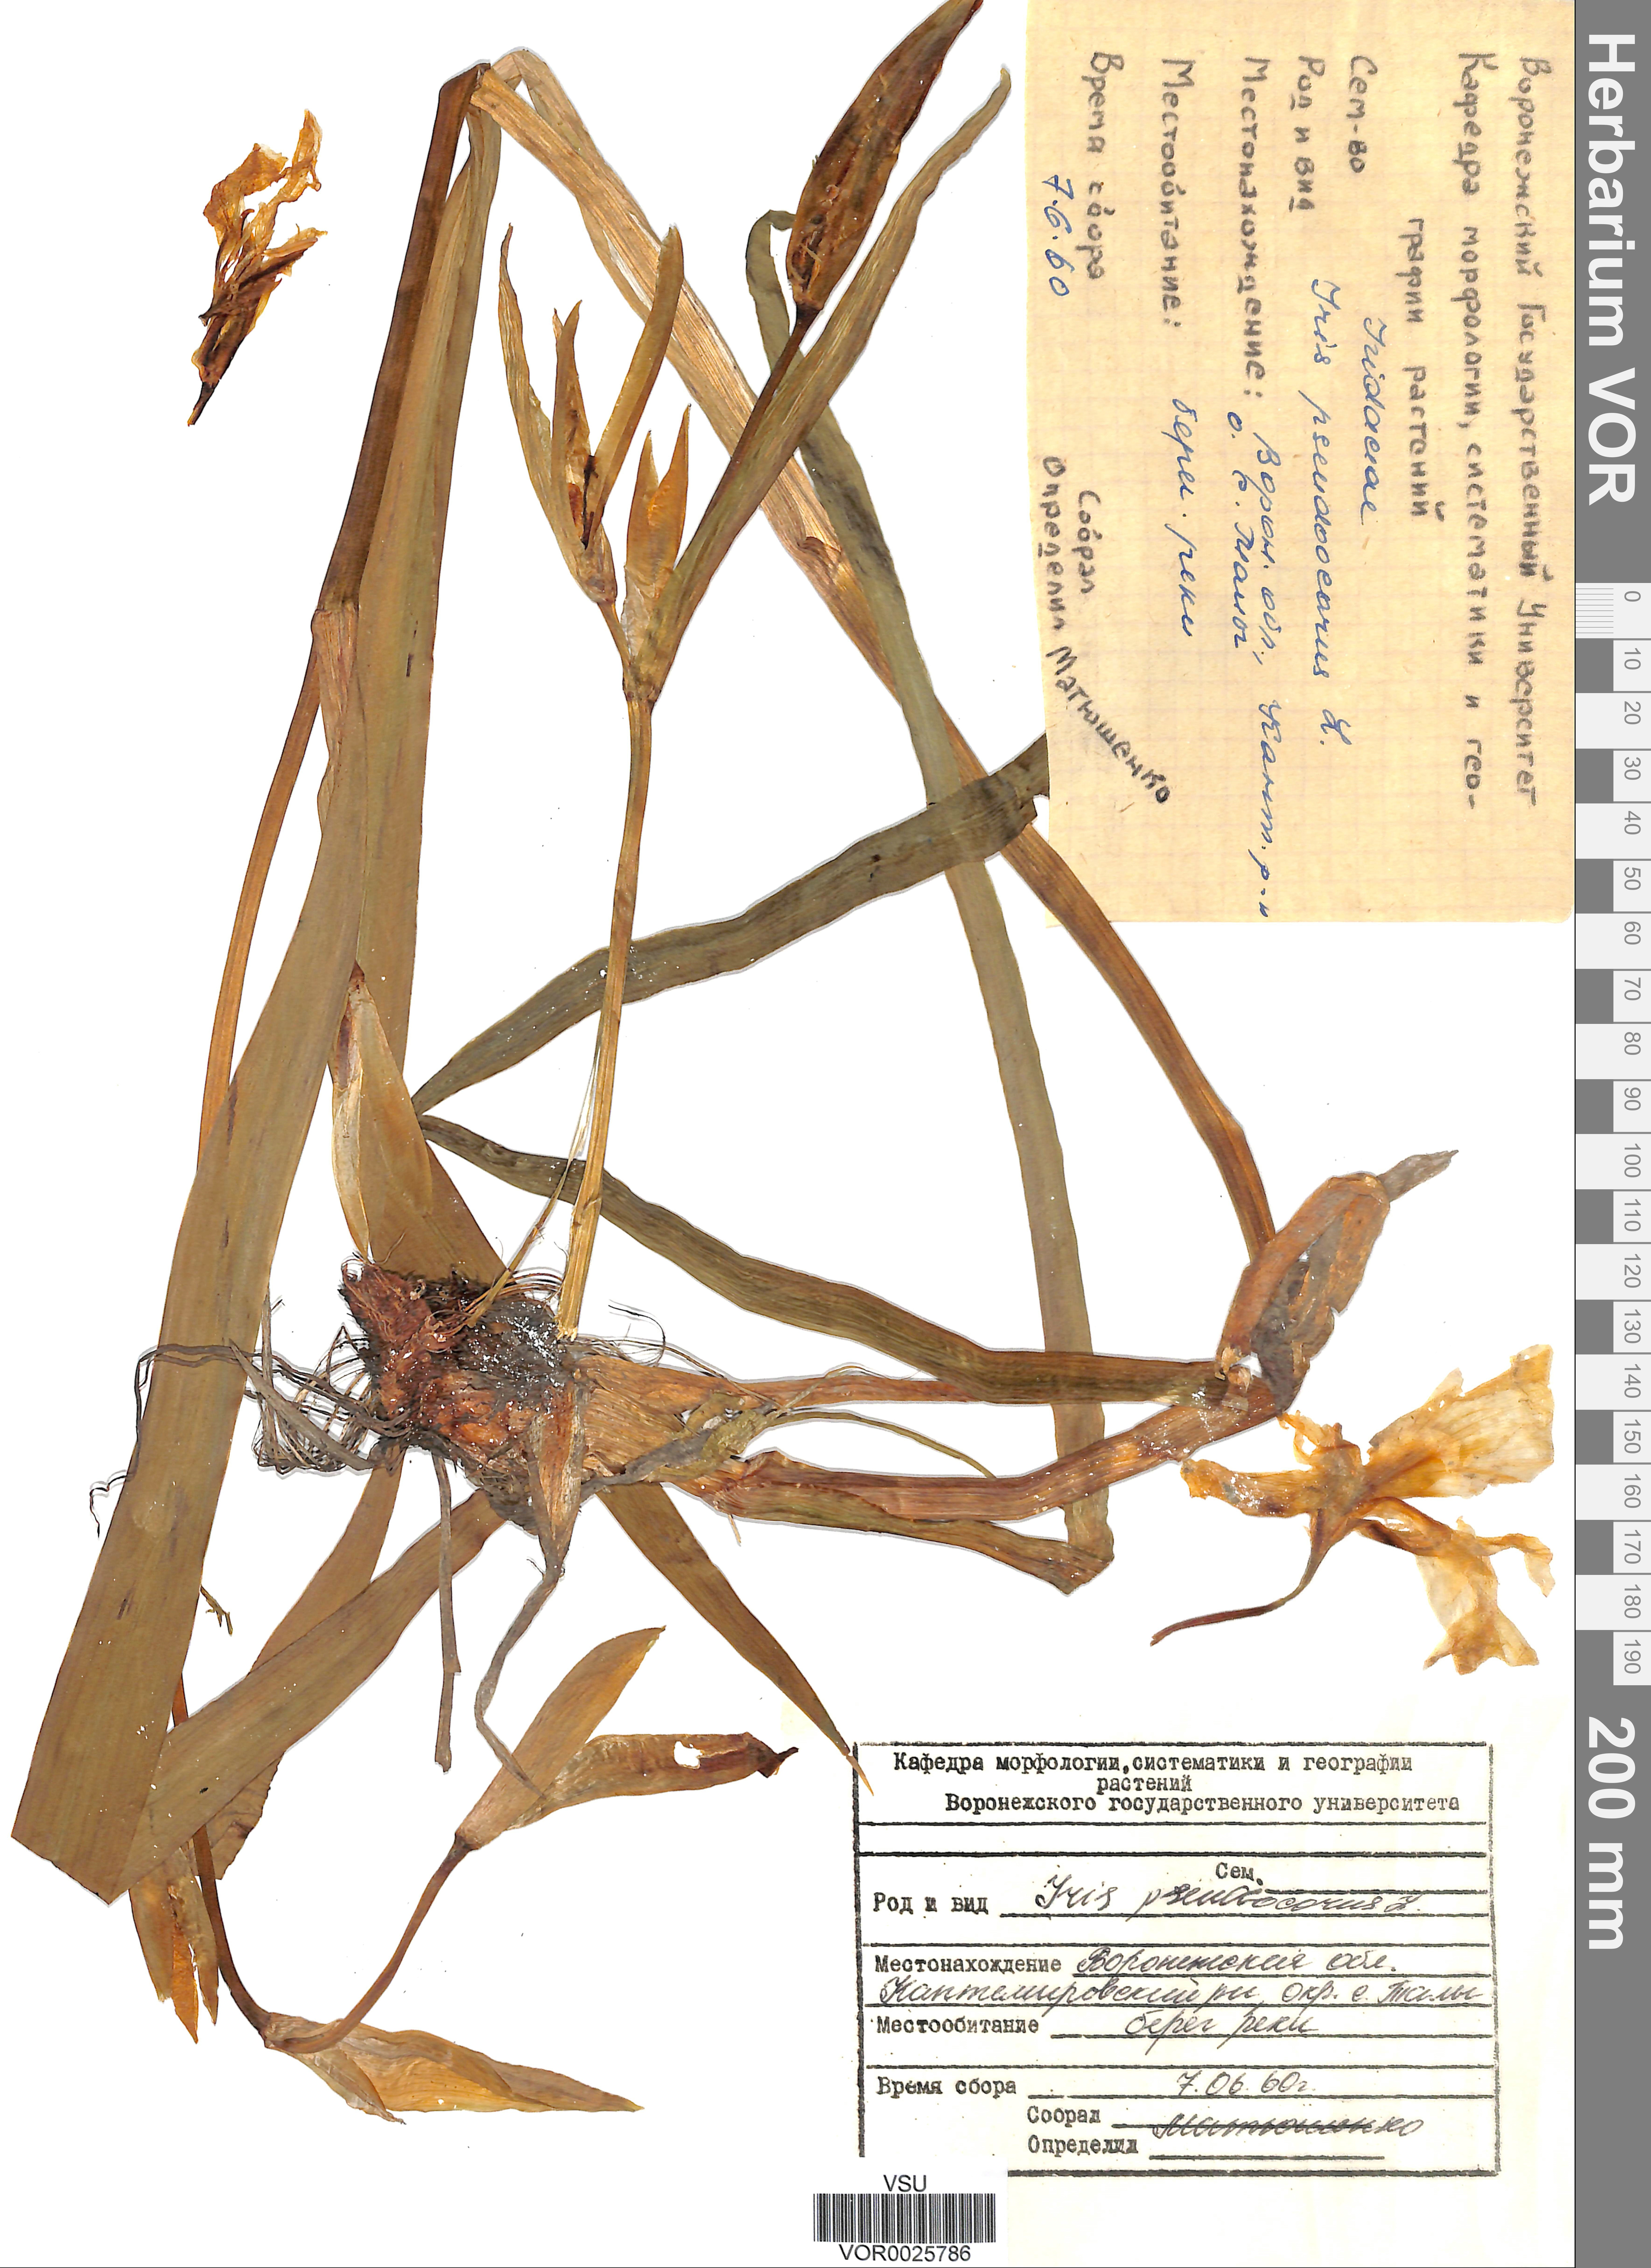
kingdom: Plantae
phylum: Tracheophyta
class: Liliopsida
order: Asparagales
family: Iridaceae
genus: Iris
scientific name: Iris pseudacorus
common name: Yellow flag
